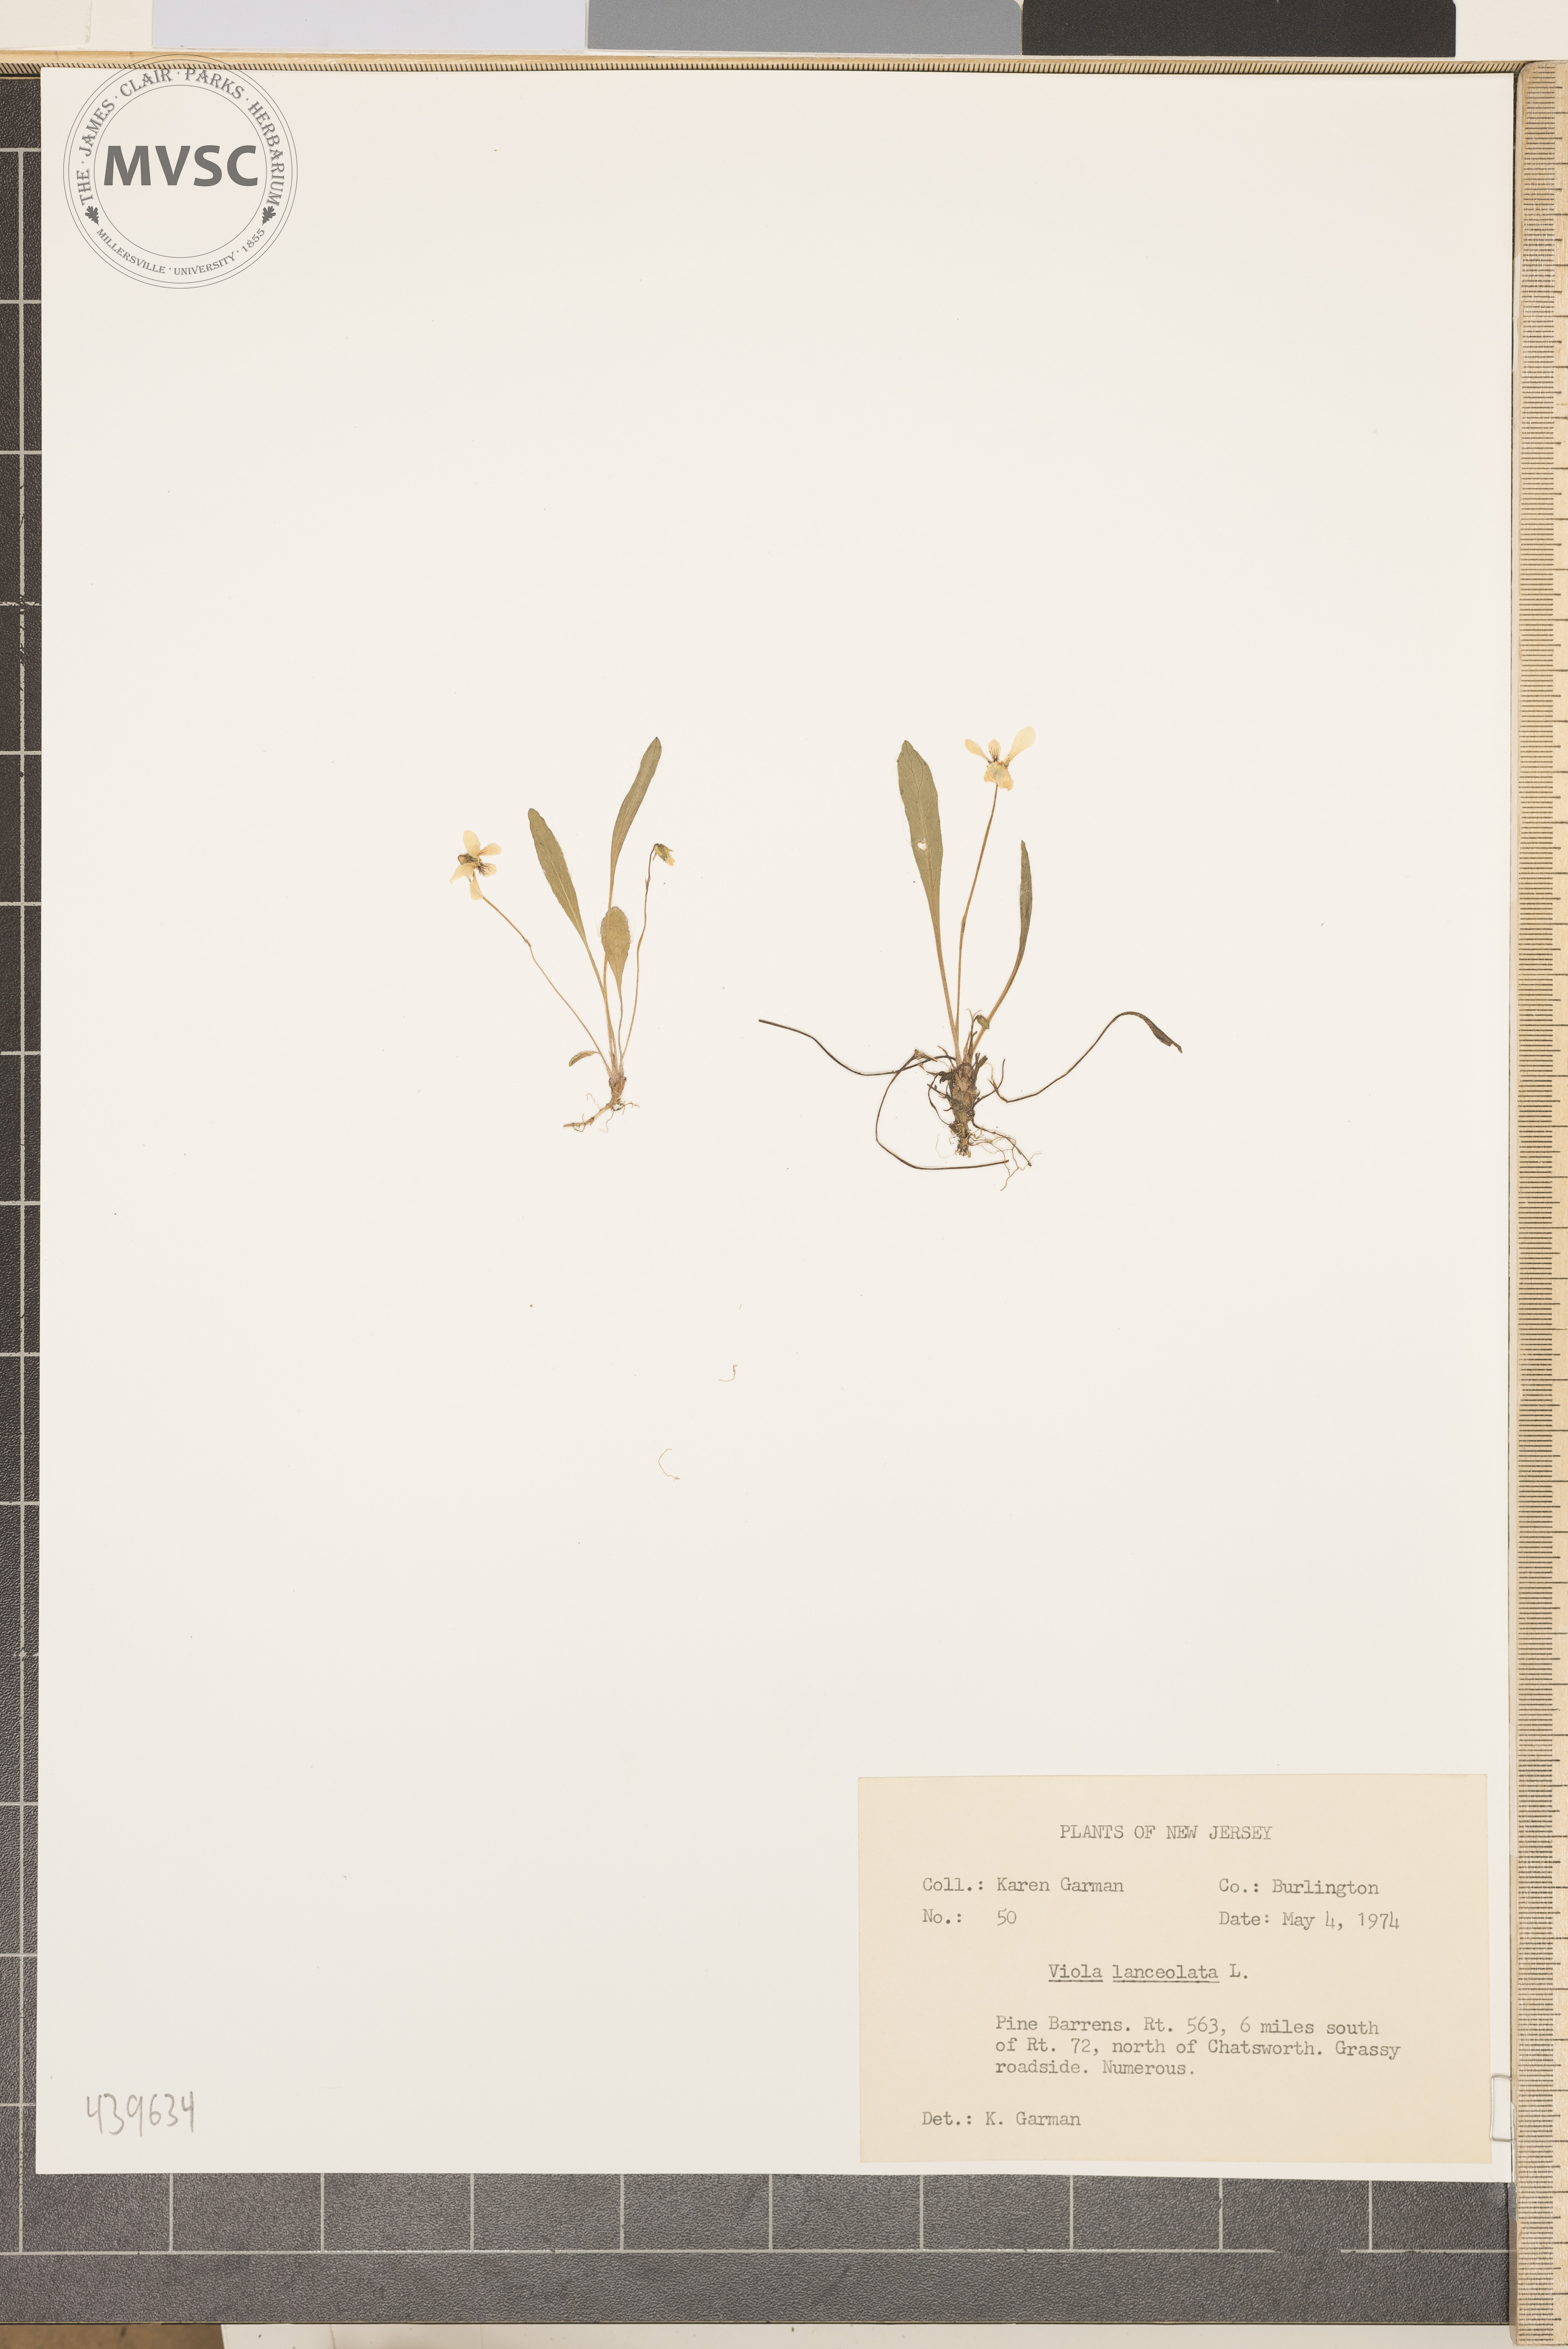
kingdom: Plantae
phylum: Tracheophyta
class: Magnoliopsida
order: Malpighiales
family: Violaceae
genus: Viola
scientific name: Viola lanceolata
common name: Bog white violet
